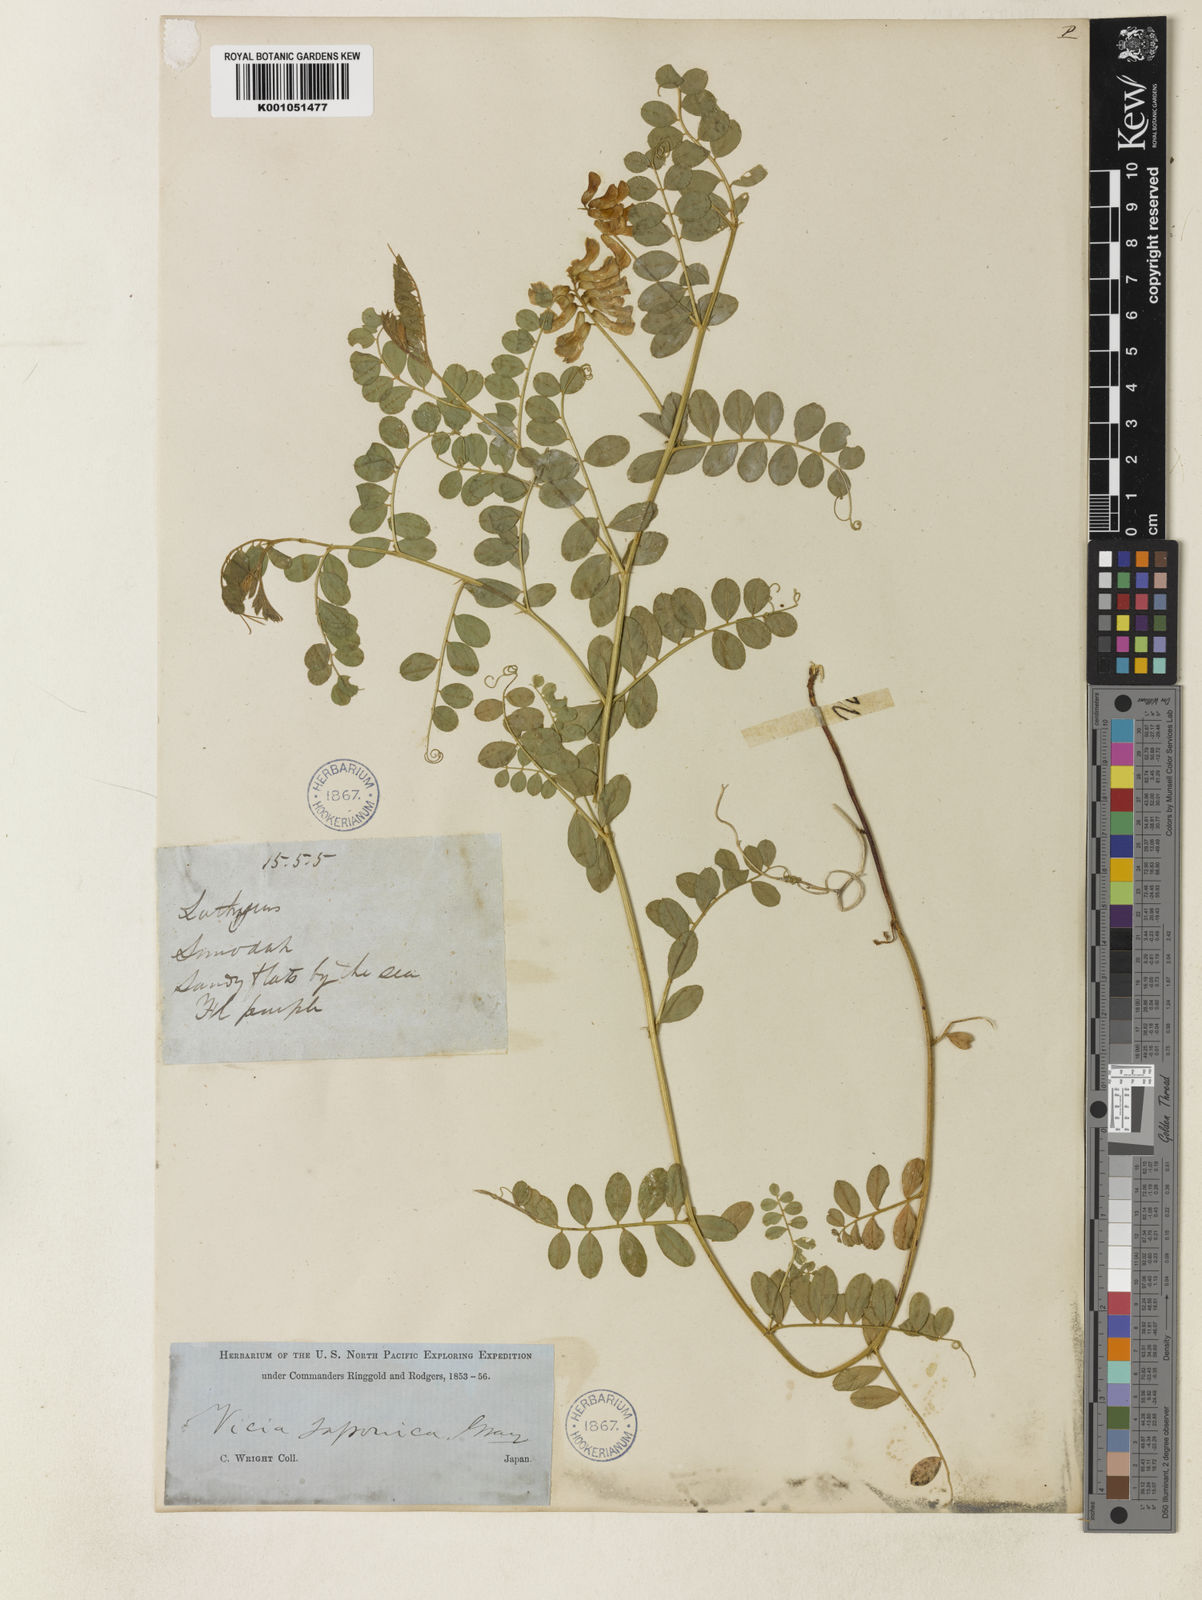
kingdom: Plantae
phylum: Tracheophyta
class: Magnoliopsida
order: Fabales
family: Fabaceae
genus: Vicia
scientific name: Vicia japonica
